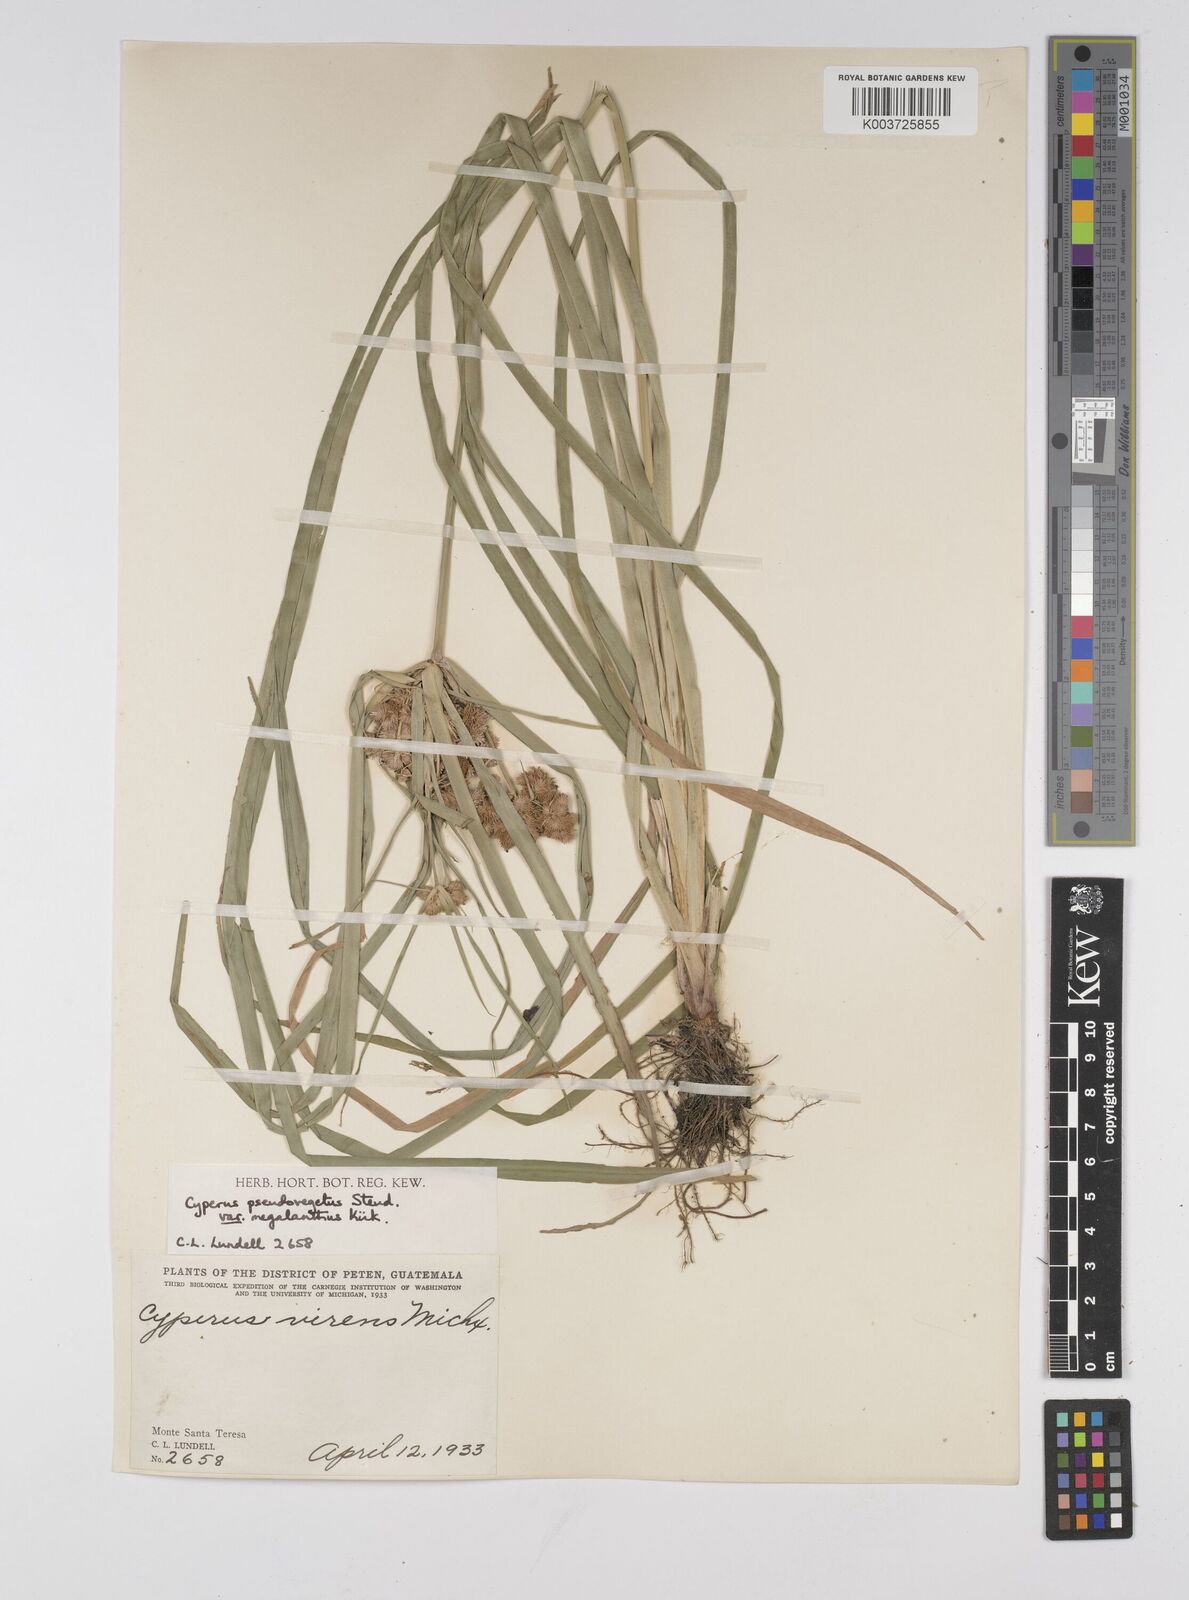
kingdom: Plantae
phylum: Tracheophyta
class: Liliopsida
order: Poales
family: Cyperaceae
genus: Cyperus
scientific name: Cyperus megalanthus
